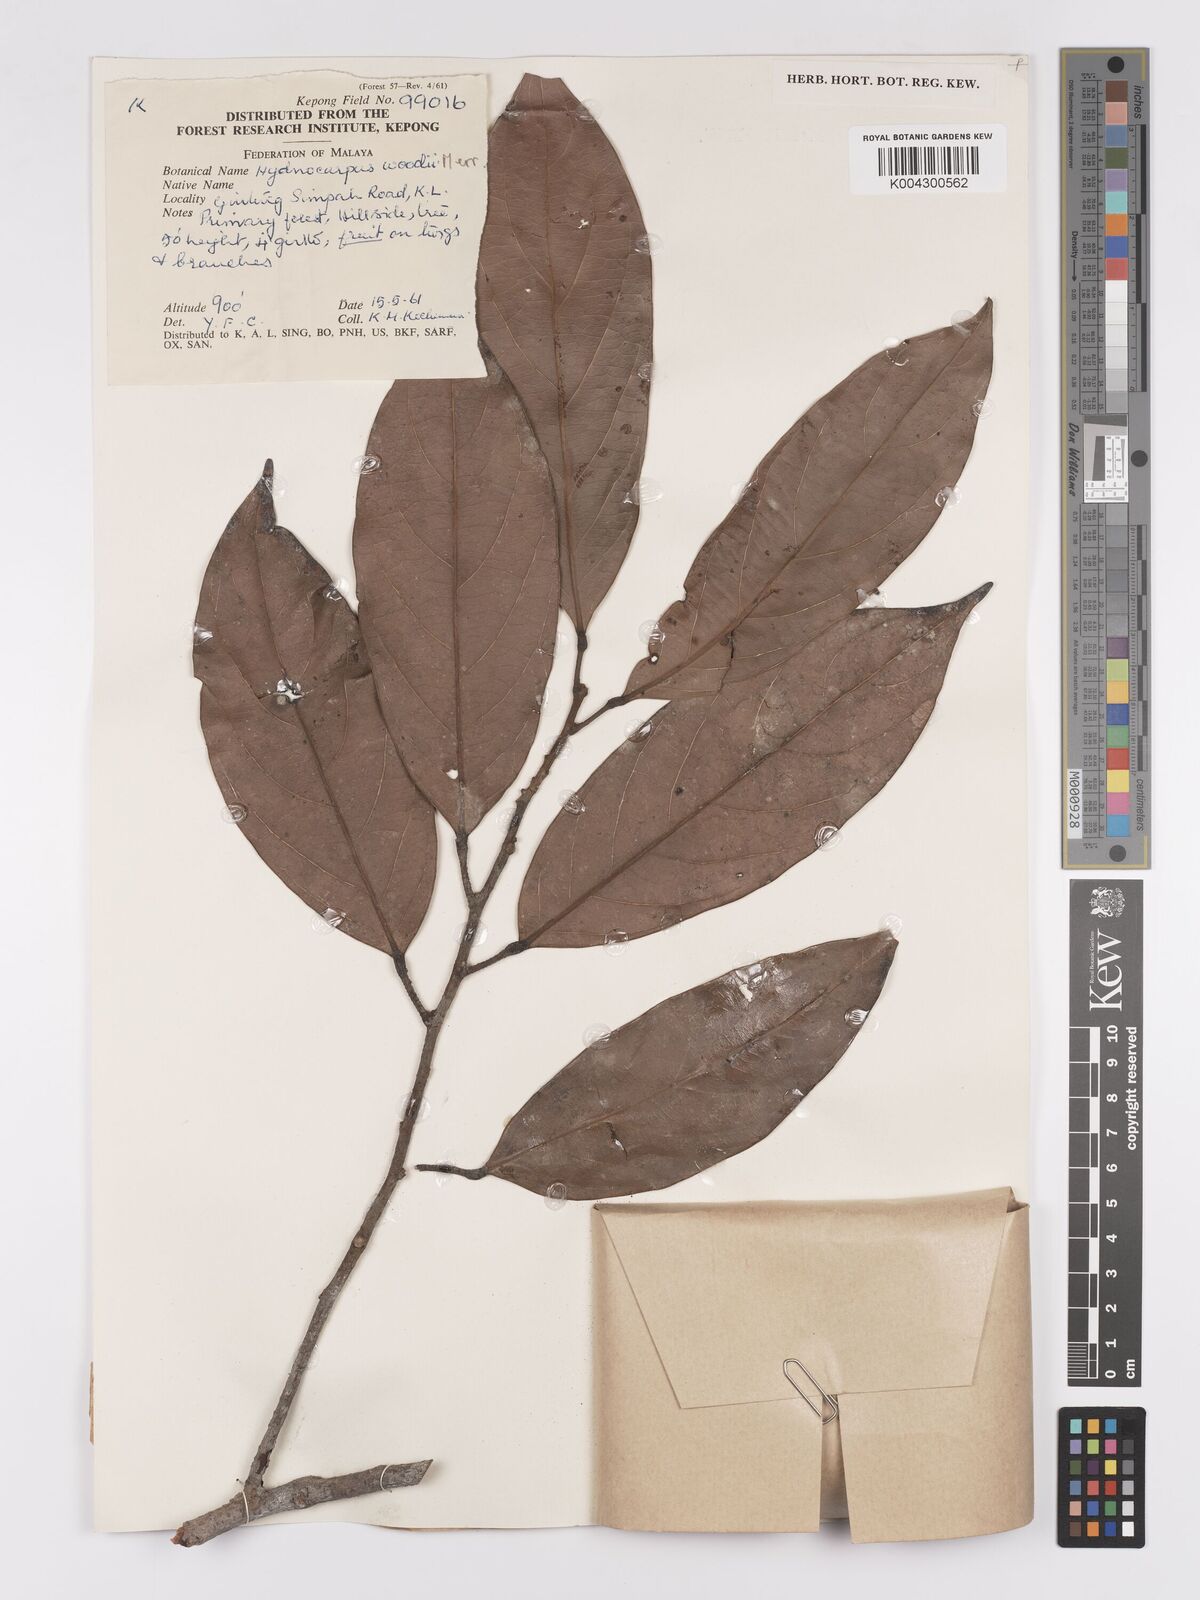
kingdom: Plantae
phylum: Tracheophyta
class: Magnoliopsida
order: Malpighiales
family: Achariaceae
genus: Hydnocarpus
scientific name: Hydnocarpus woodii
